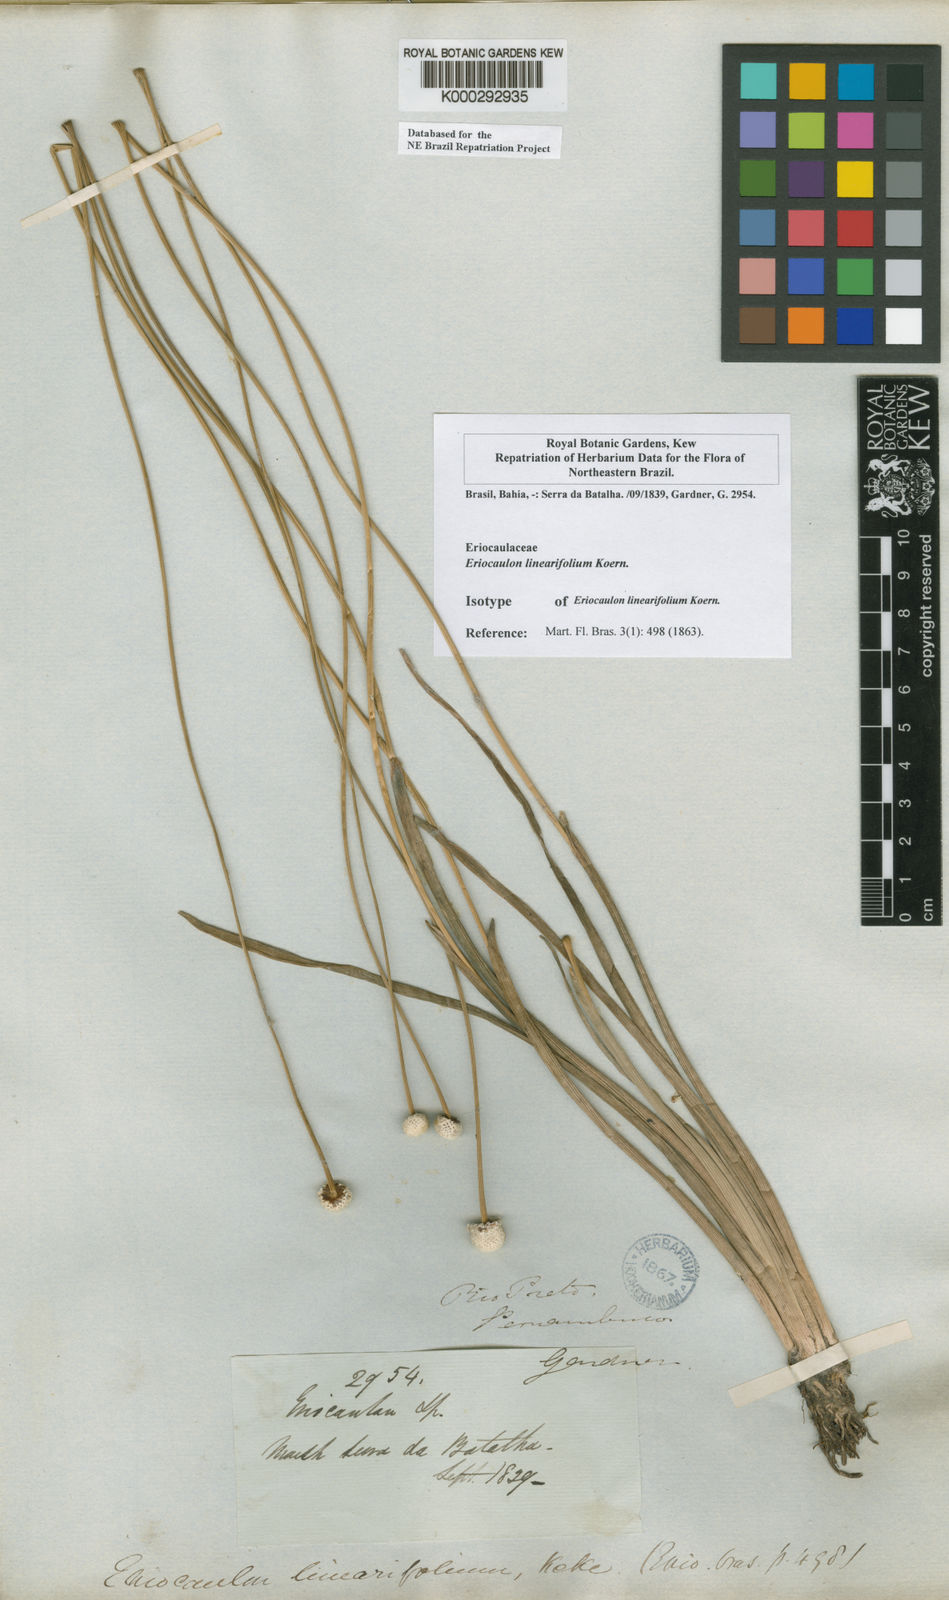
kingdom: Plantae
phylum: Tracheophyta
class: Liliopsida
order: Poales
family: Eriocaulaceae
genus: Eriocaulon
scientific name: Eriocaulon
